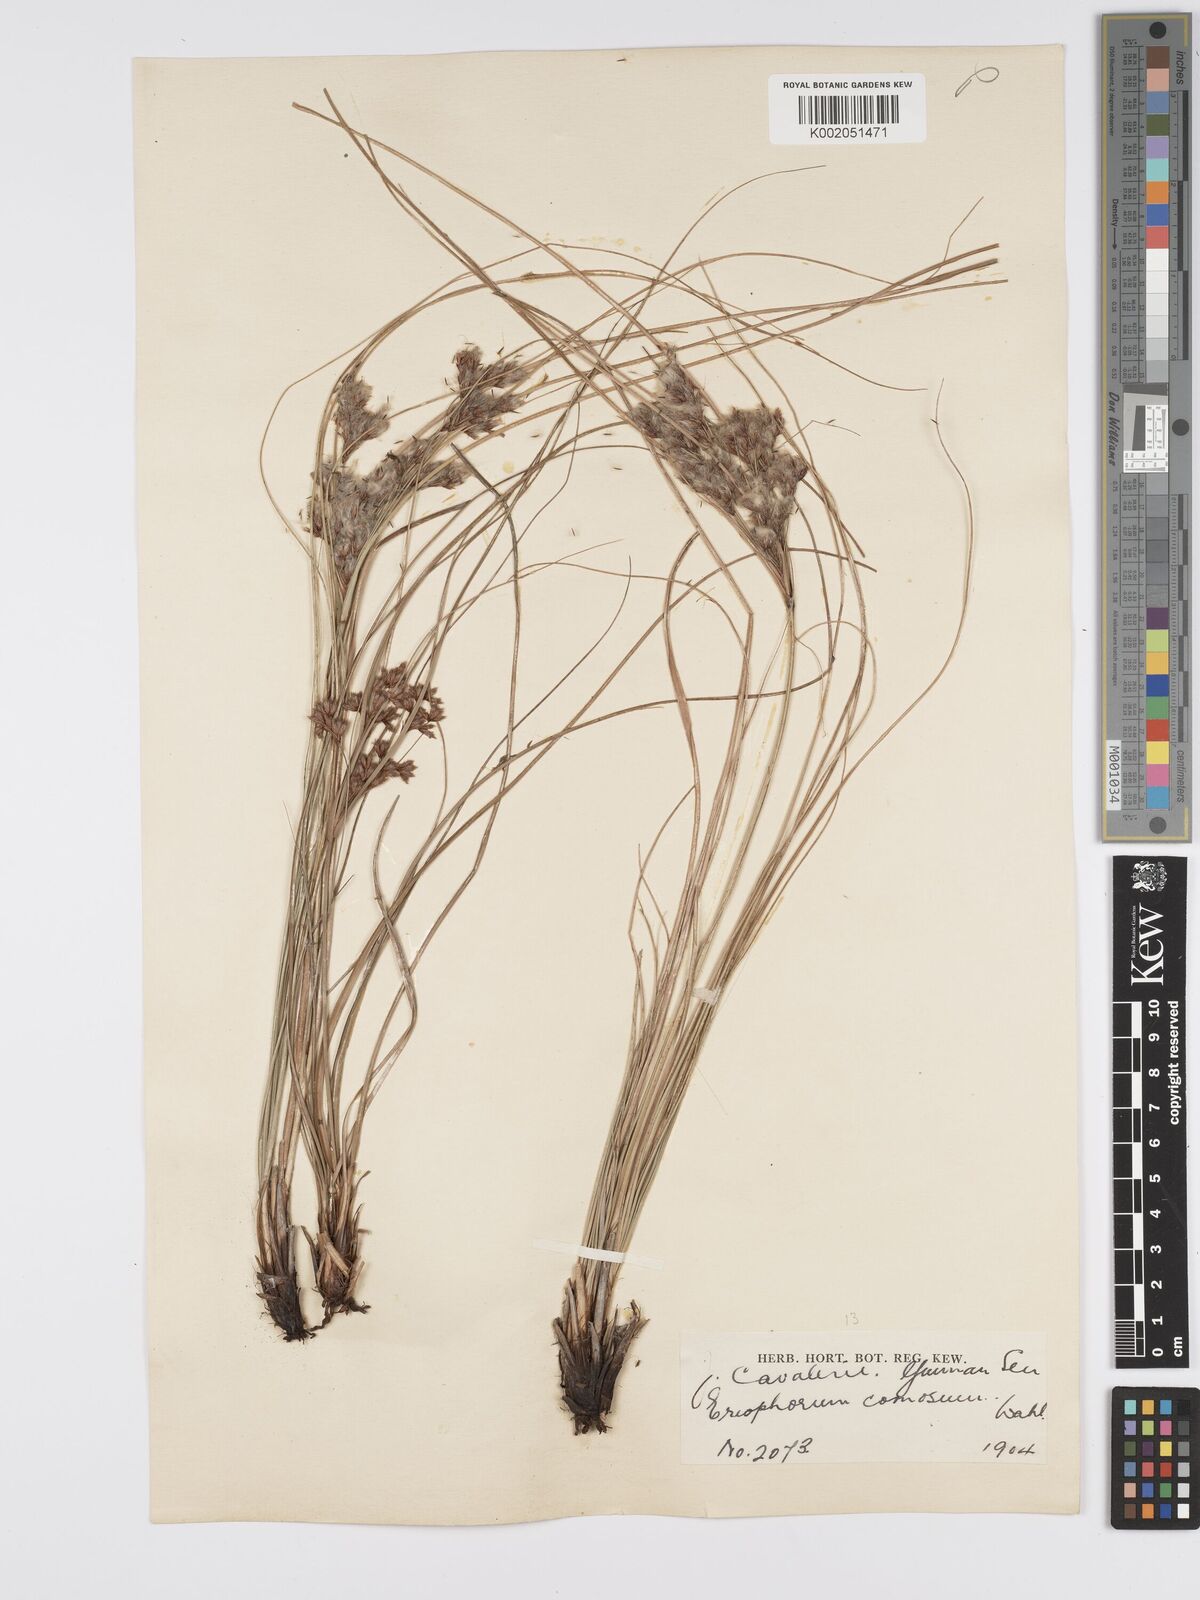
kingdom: Plantae
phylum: Tracheophyta
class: Liliopsida
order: Poales
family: Cyperaceae
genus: Erioscirpus
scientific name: Erioscirpus comosus
